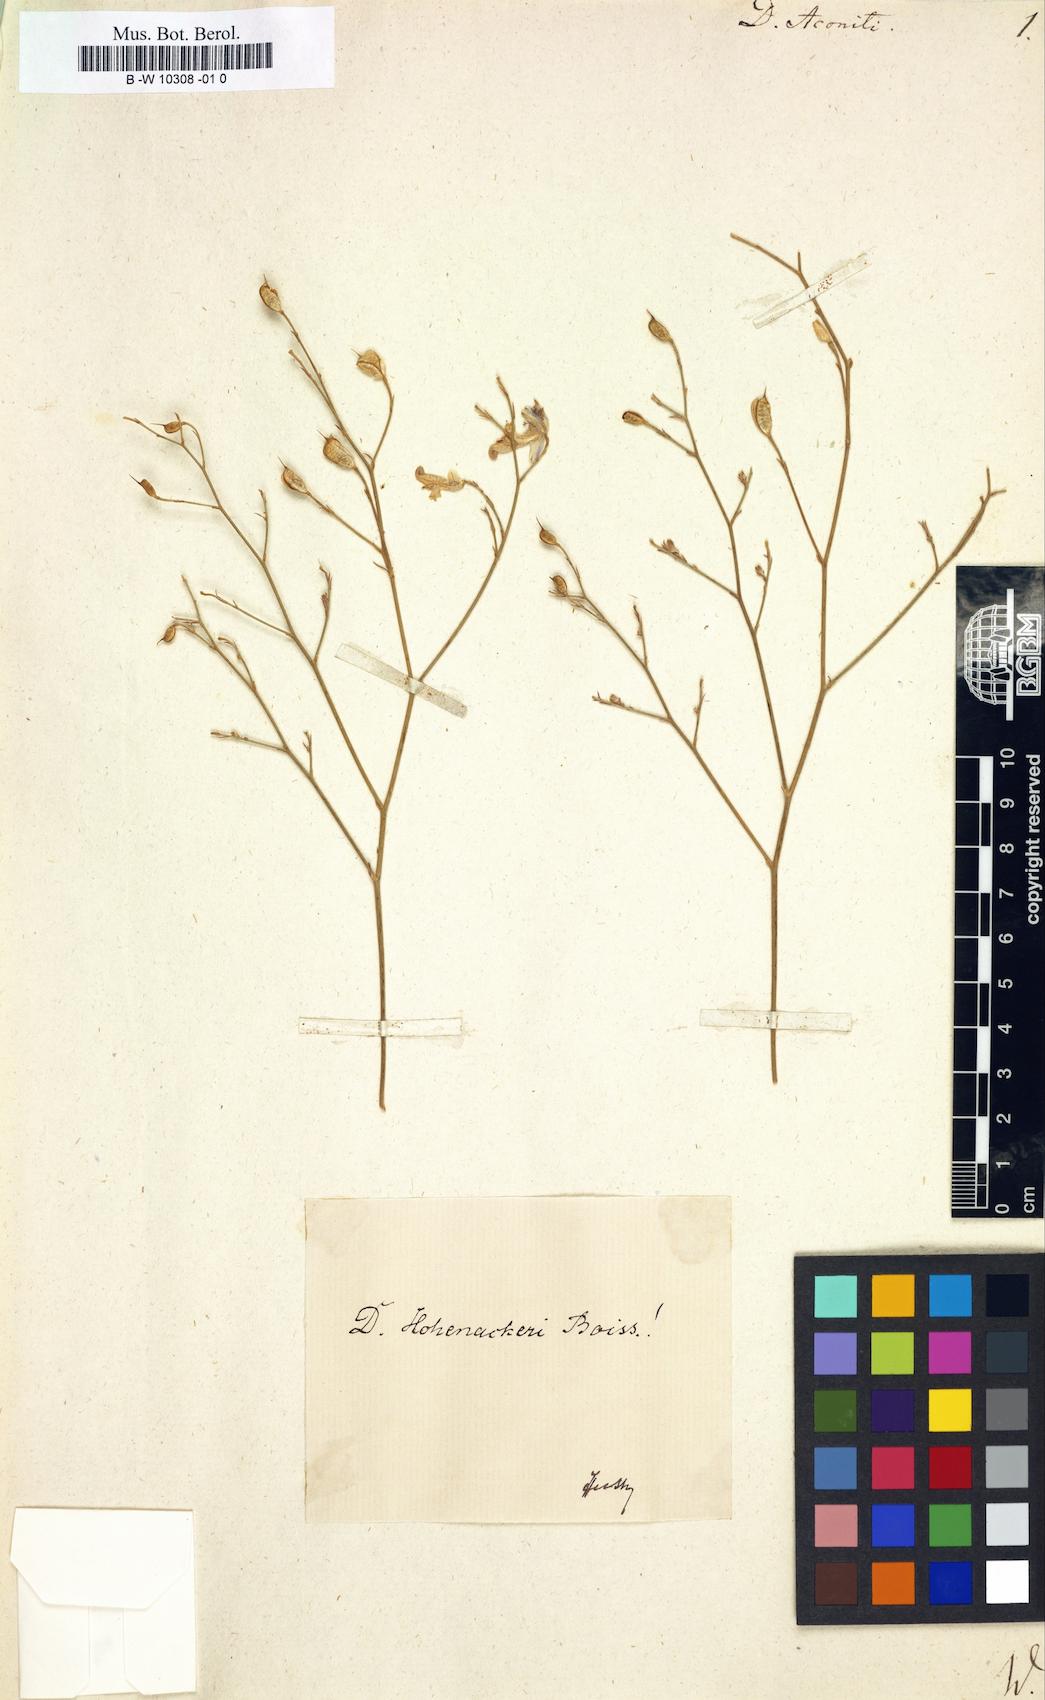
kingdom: Plantae
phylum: Tracheophyta
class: Magnoliopsida
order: Ranunculales
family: Ranunculaceae
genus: Delphinium
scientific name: Delphinium aconiti
